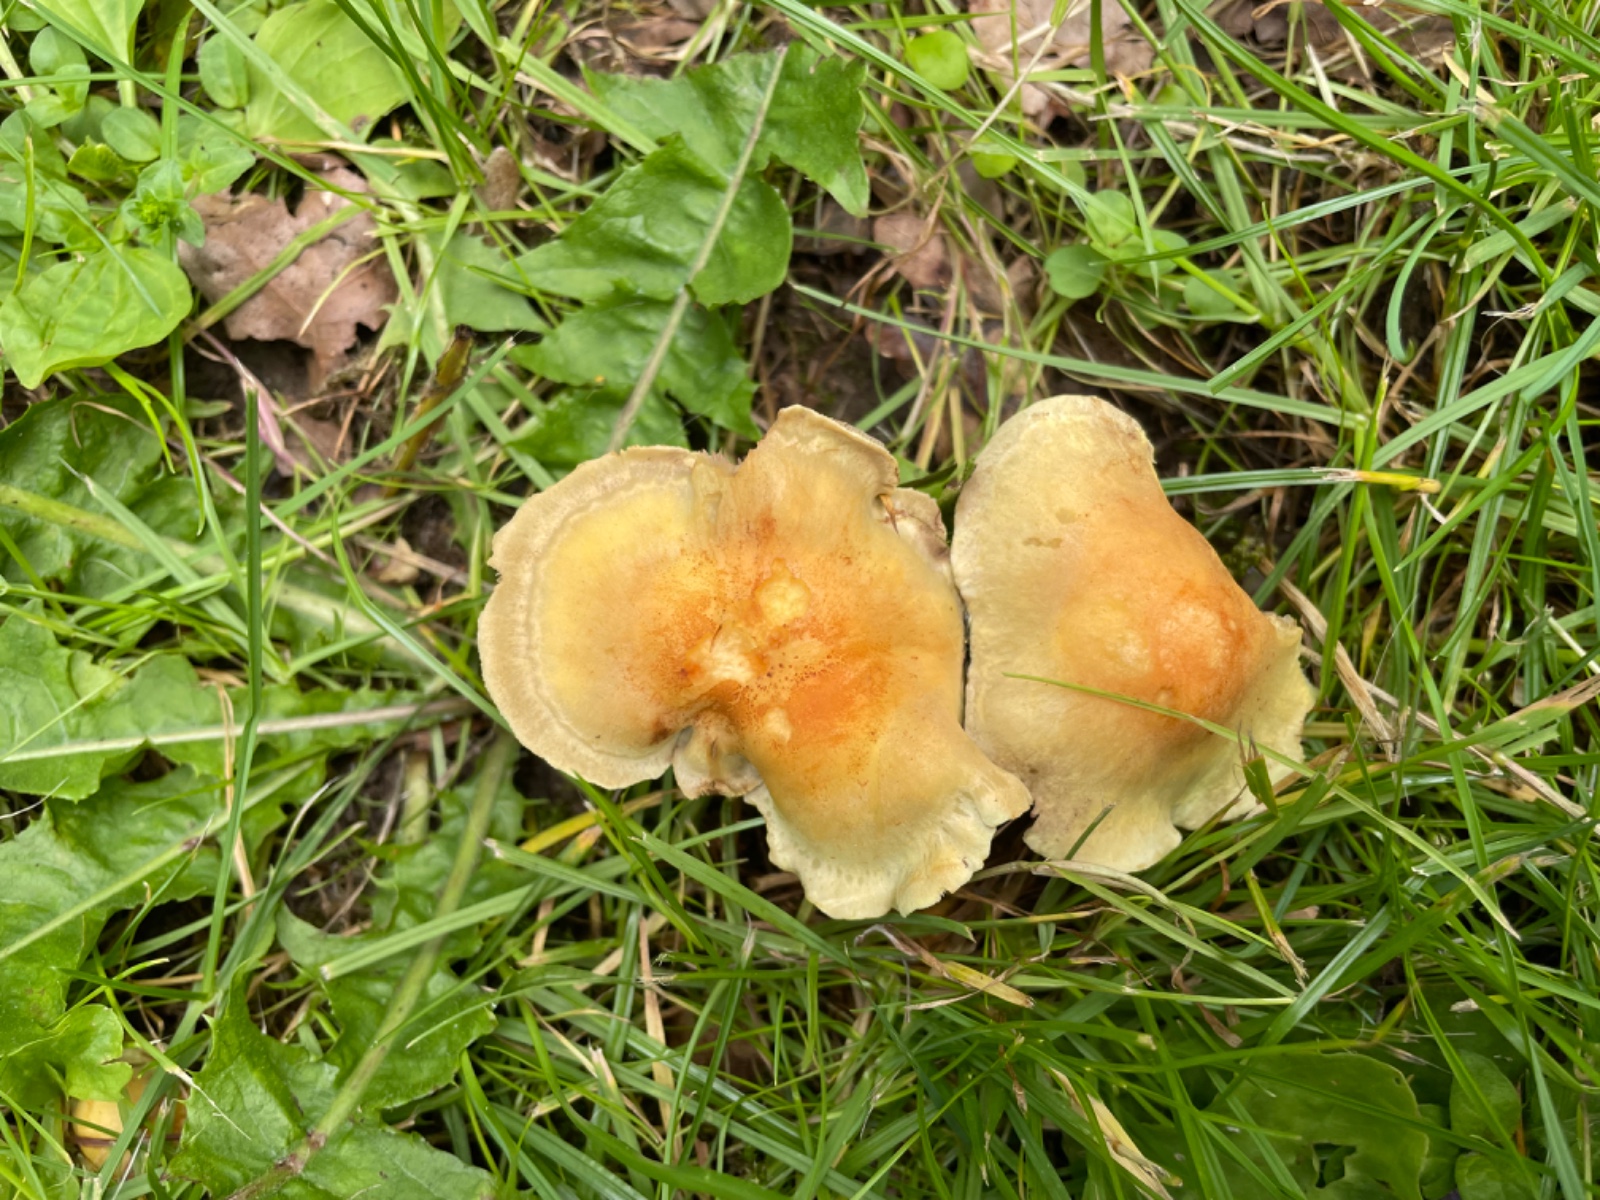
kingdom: Fungi
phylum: Basidiomycota
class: Agaricomycetes
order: Agaricales
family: Strophariaceae
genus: Hypholoma
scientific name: Hypholoma fasciculare
